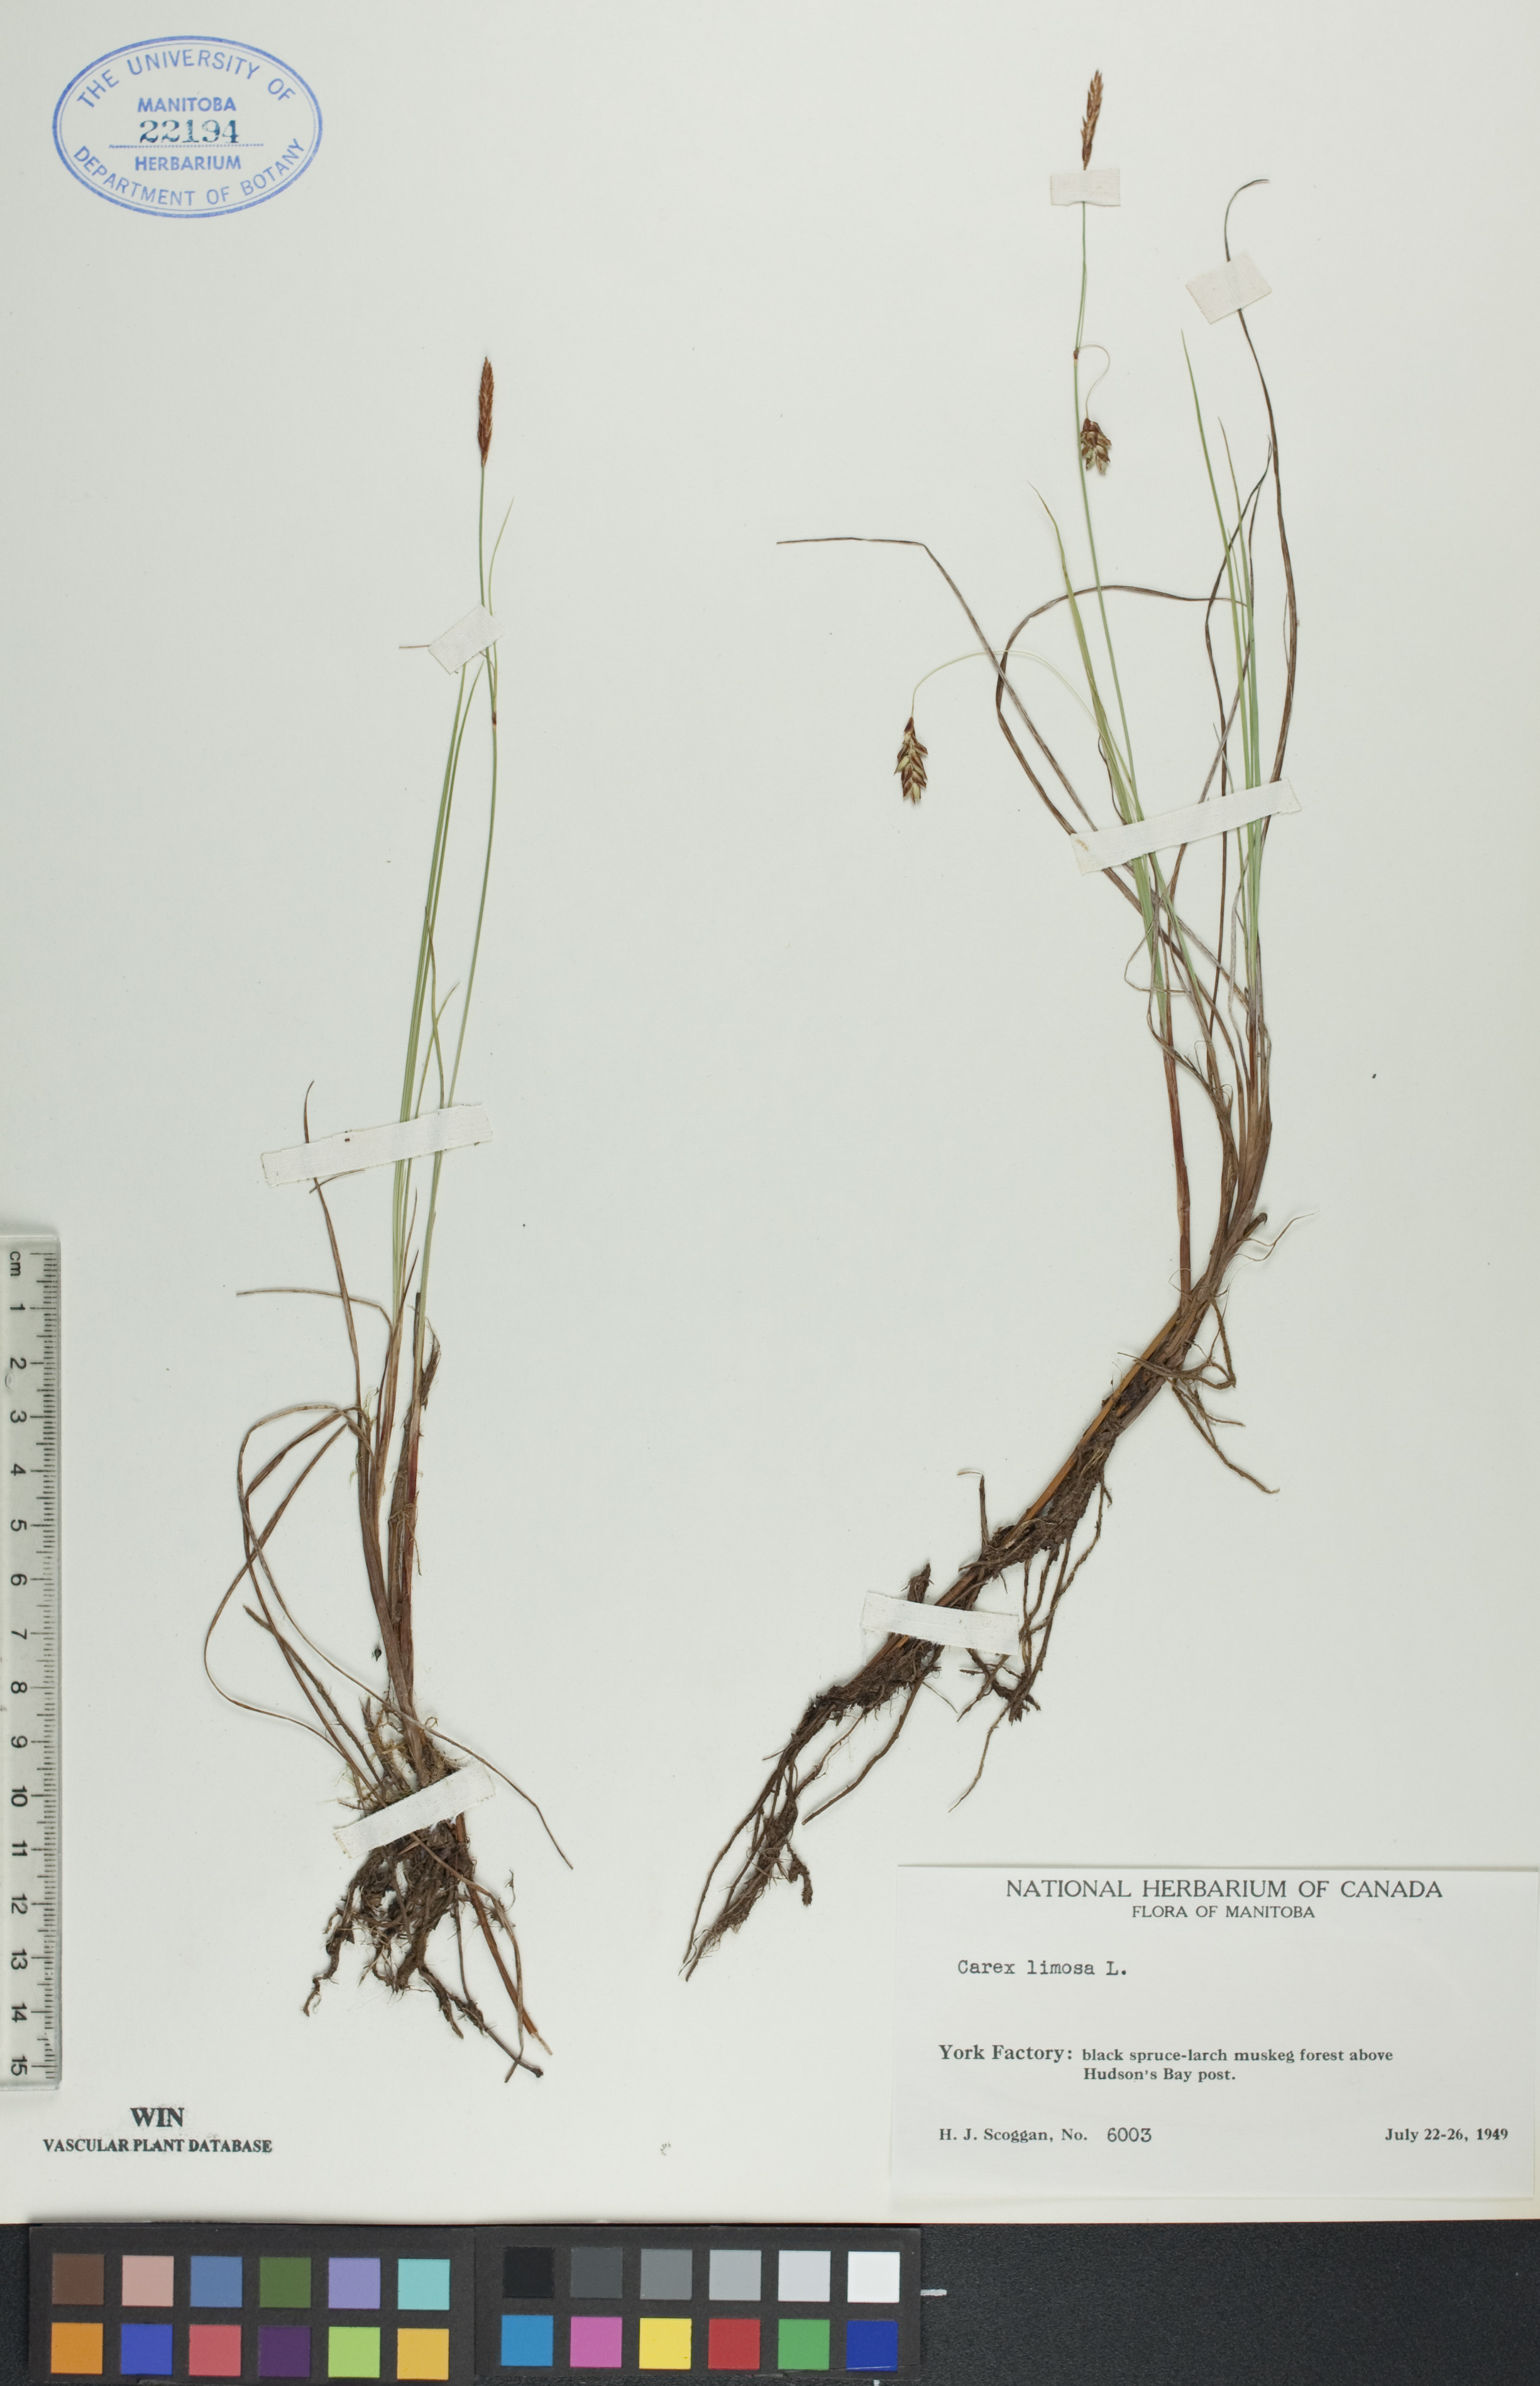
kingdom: Plantae
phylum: Tracheophyta
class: Liliopsida
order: Poales
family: Cyperaceae
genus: Carex
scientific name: Carex limosa
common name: Bog sedge
